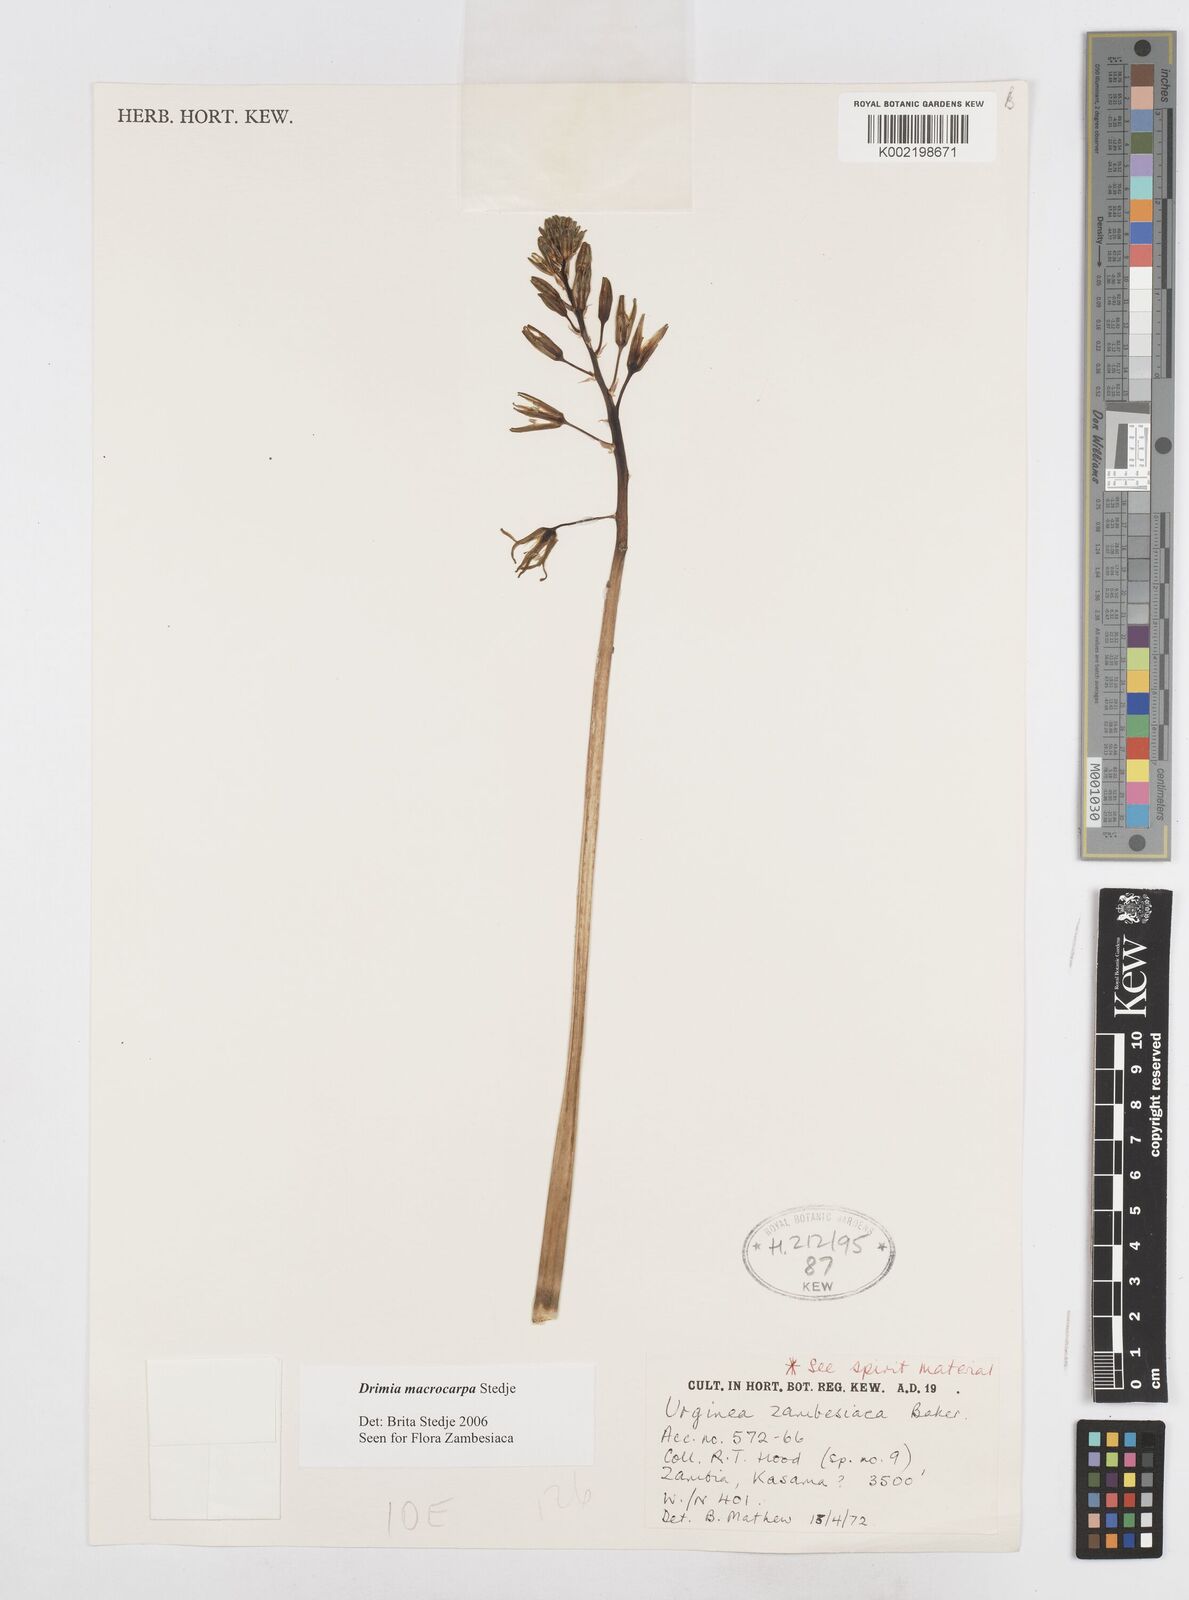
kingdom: Plantae
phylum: Tracheophyta
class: Liliopsida
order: Asparagales
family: Asparagaceae
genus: Drimia
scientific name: Drimia basutica
